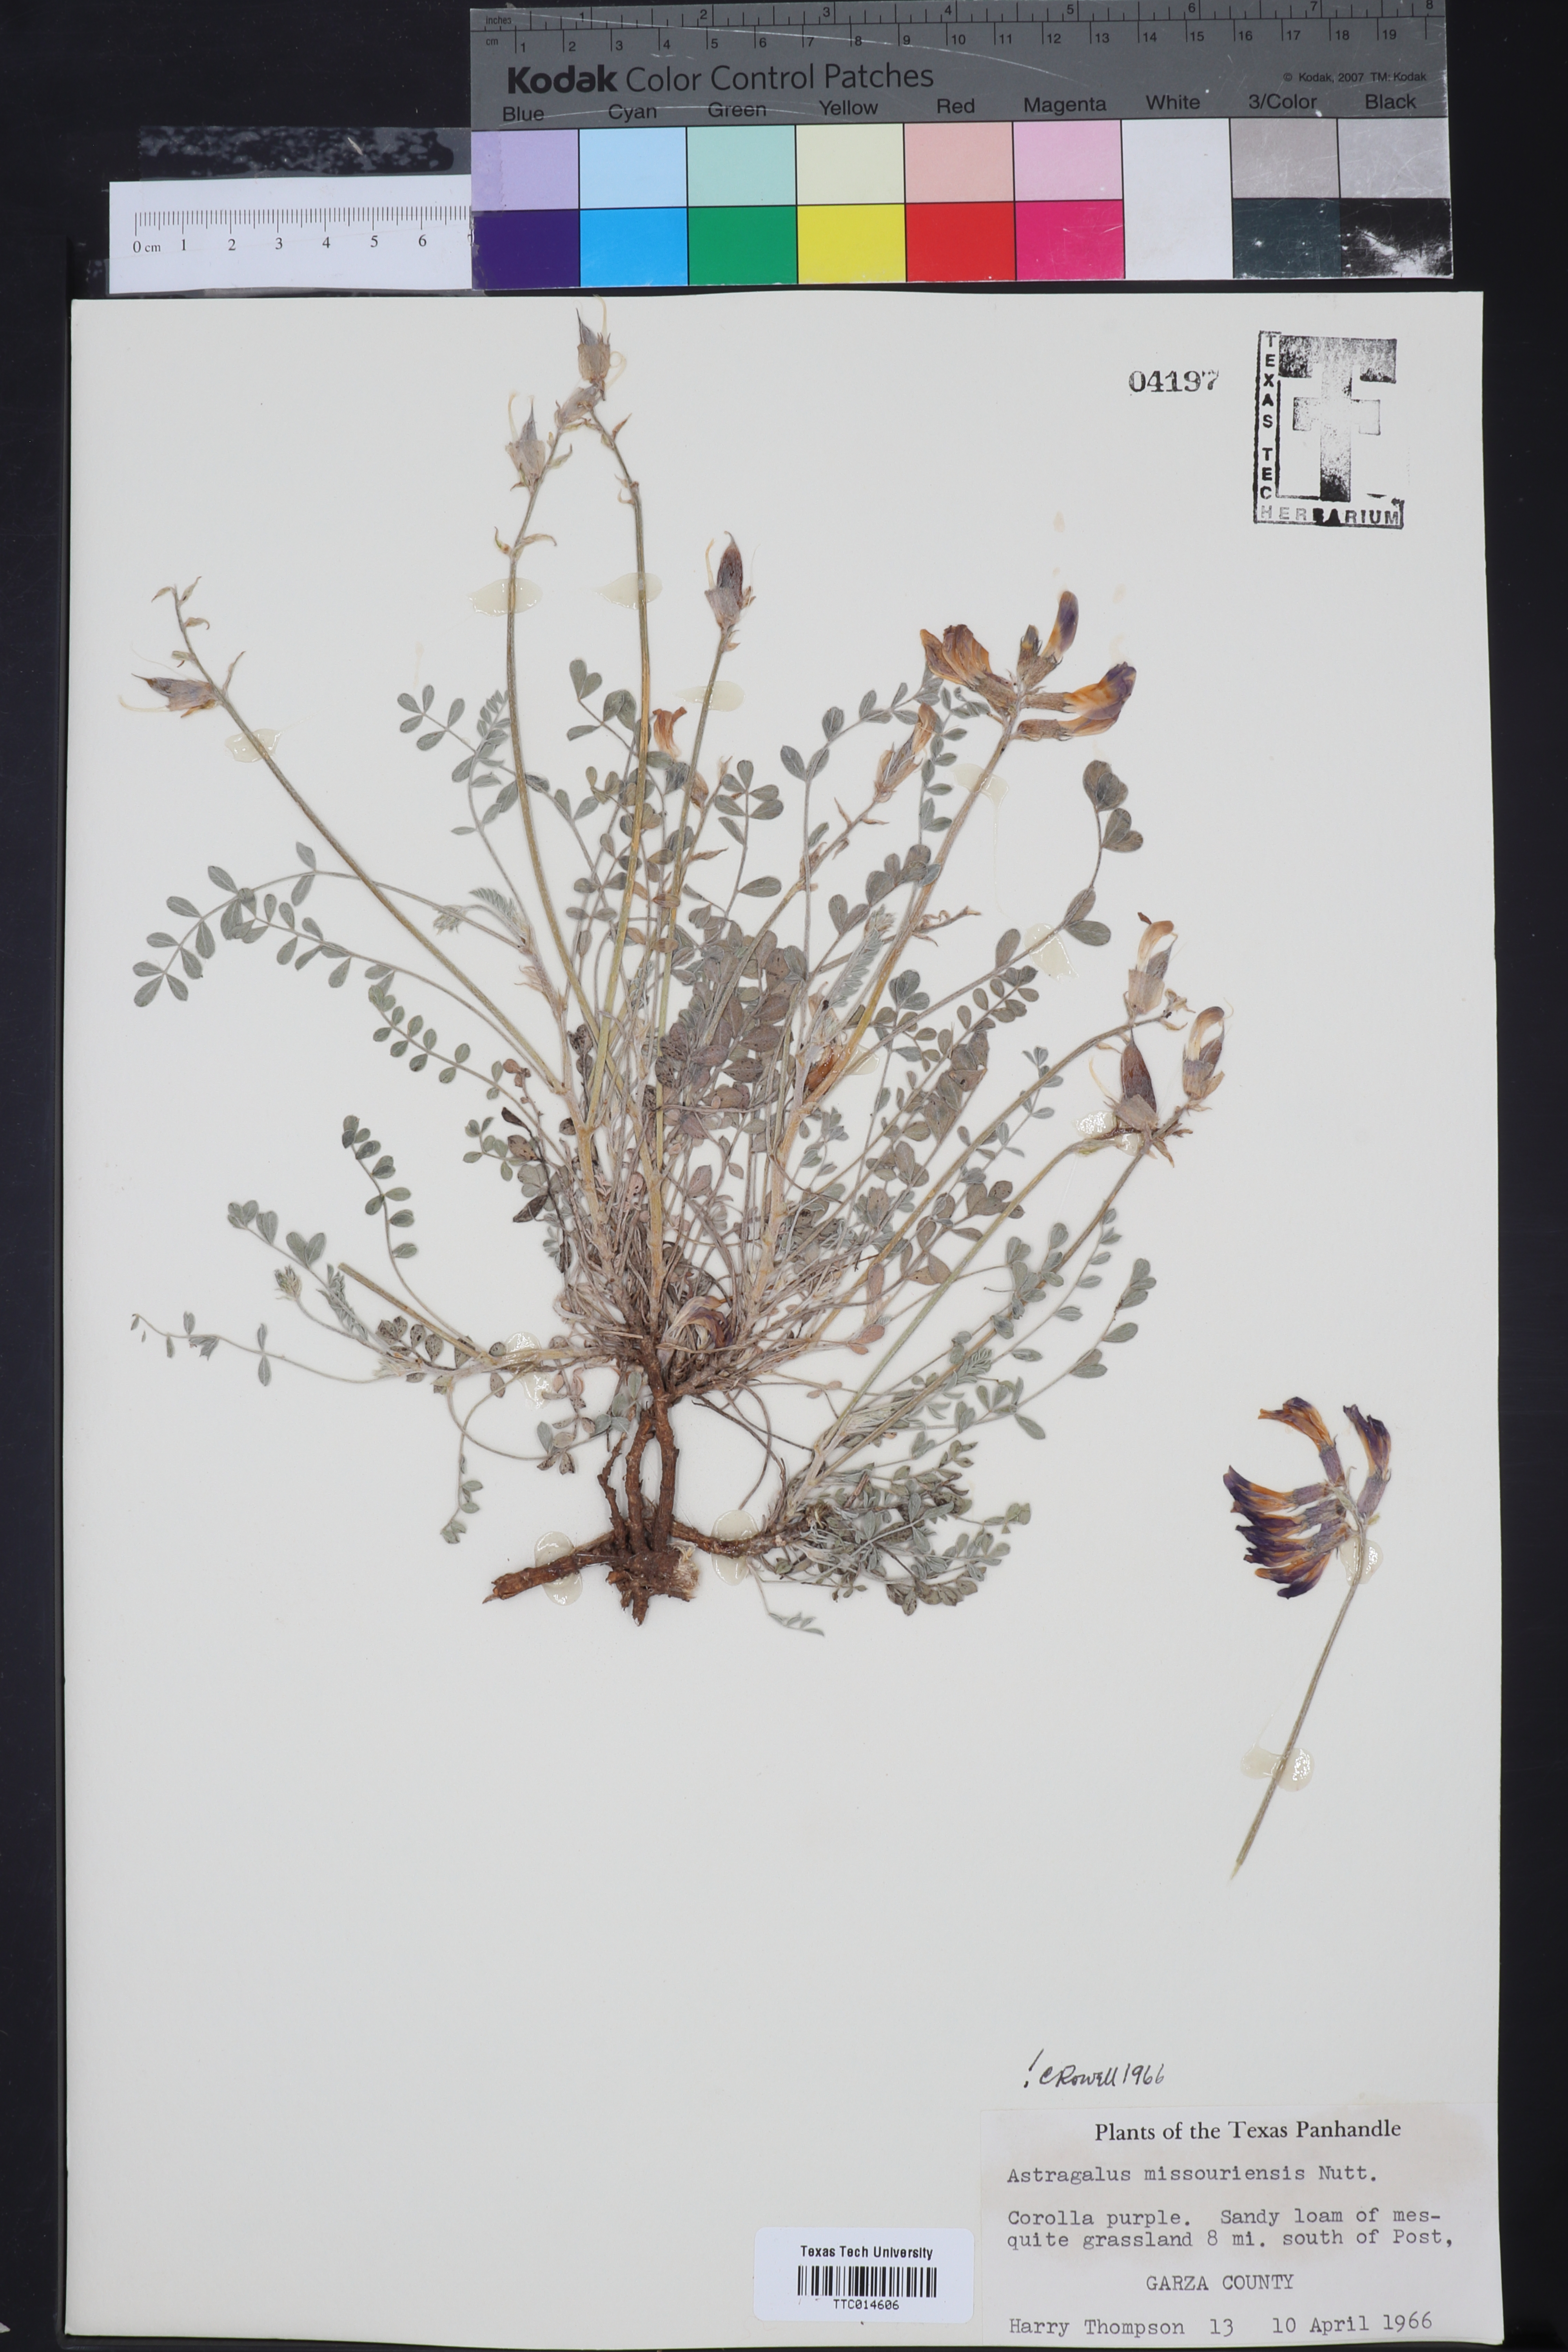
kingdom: Plantae
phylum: Tracheophyta
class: Magnoliopsida
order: Fabales
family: Fabaceae
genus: Astragalus
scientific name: Astragalus missouriensis
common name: Missouri milk-vetch
